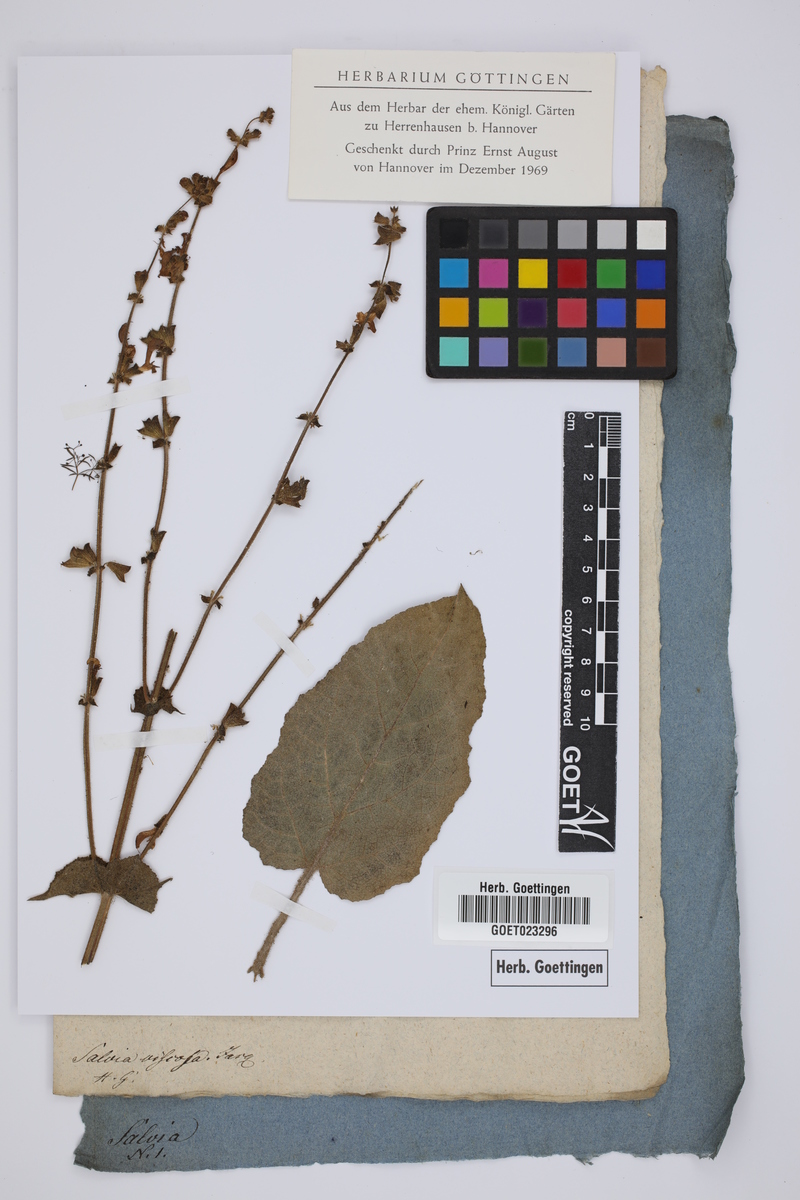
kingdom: Plantae
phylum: Tracheophyta
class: Magnoliopsida
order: Lamiales
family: Lamiaceae
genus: Salvia
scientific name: Salvia viscosa
